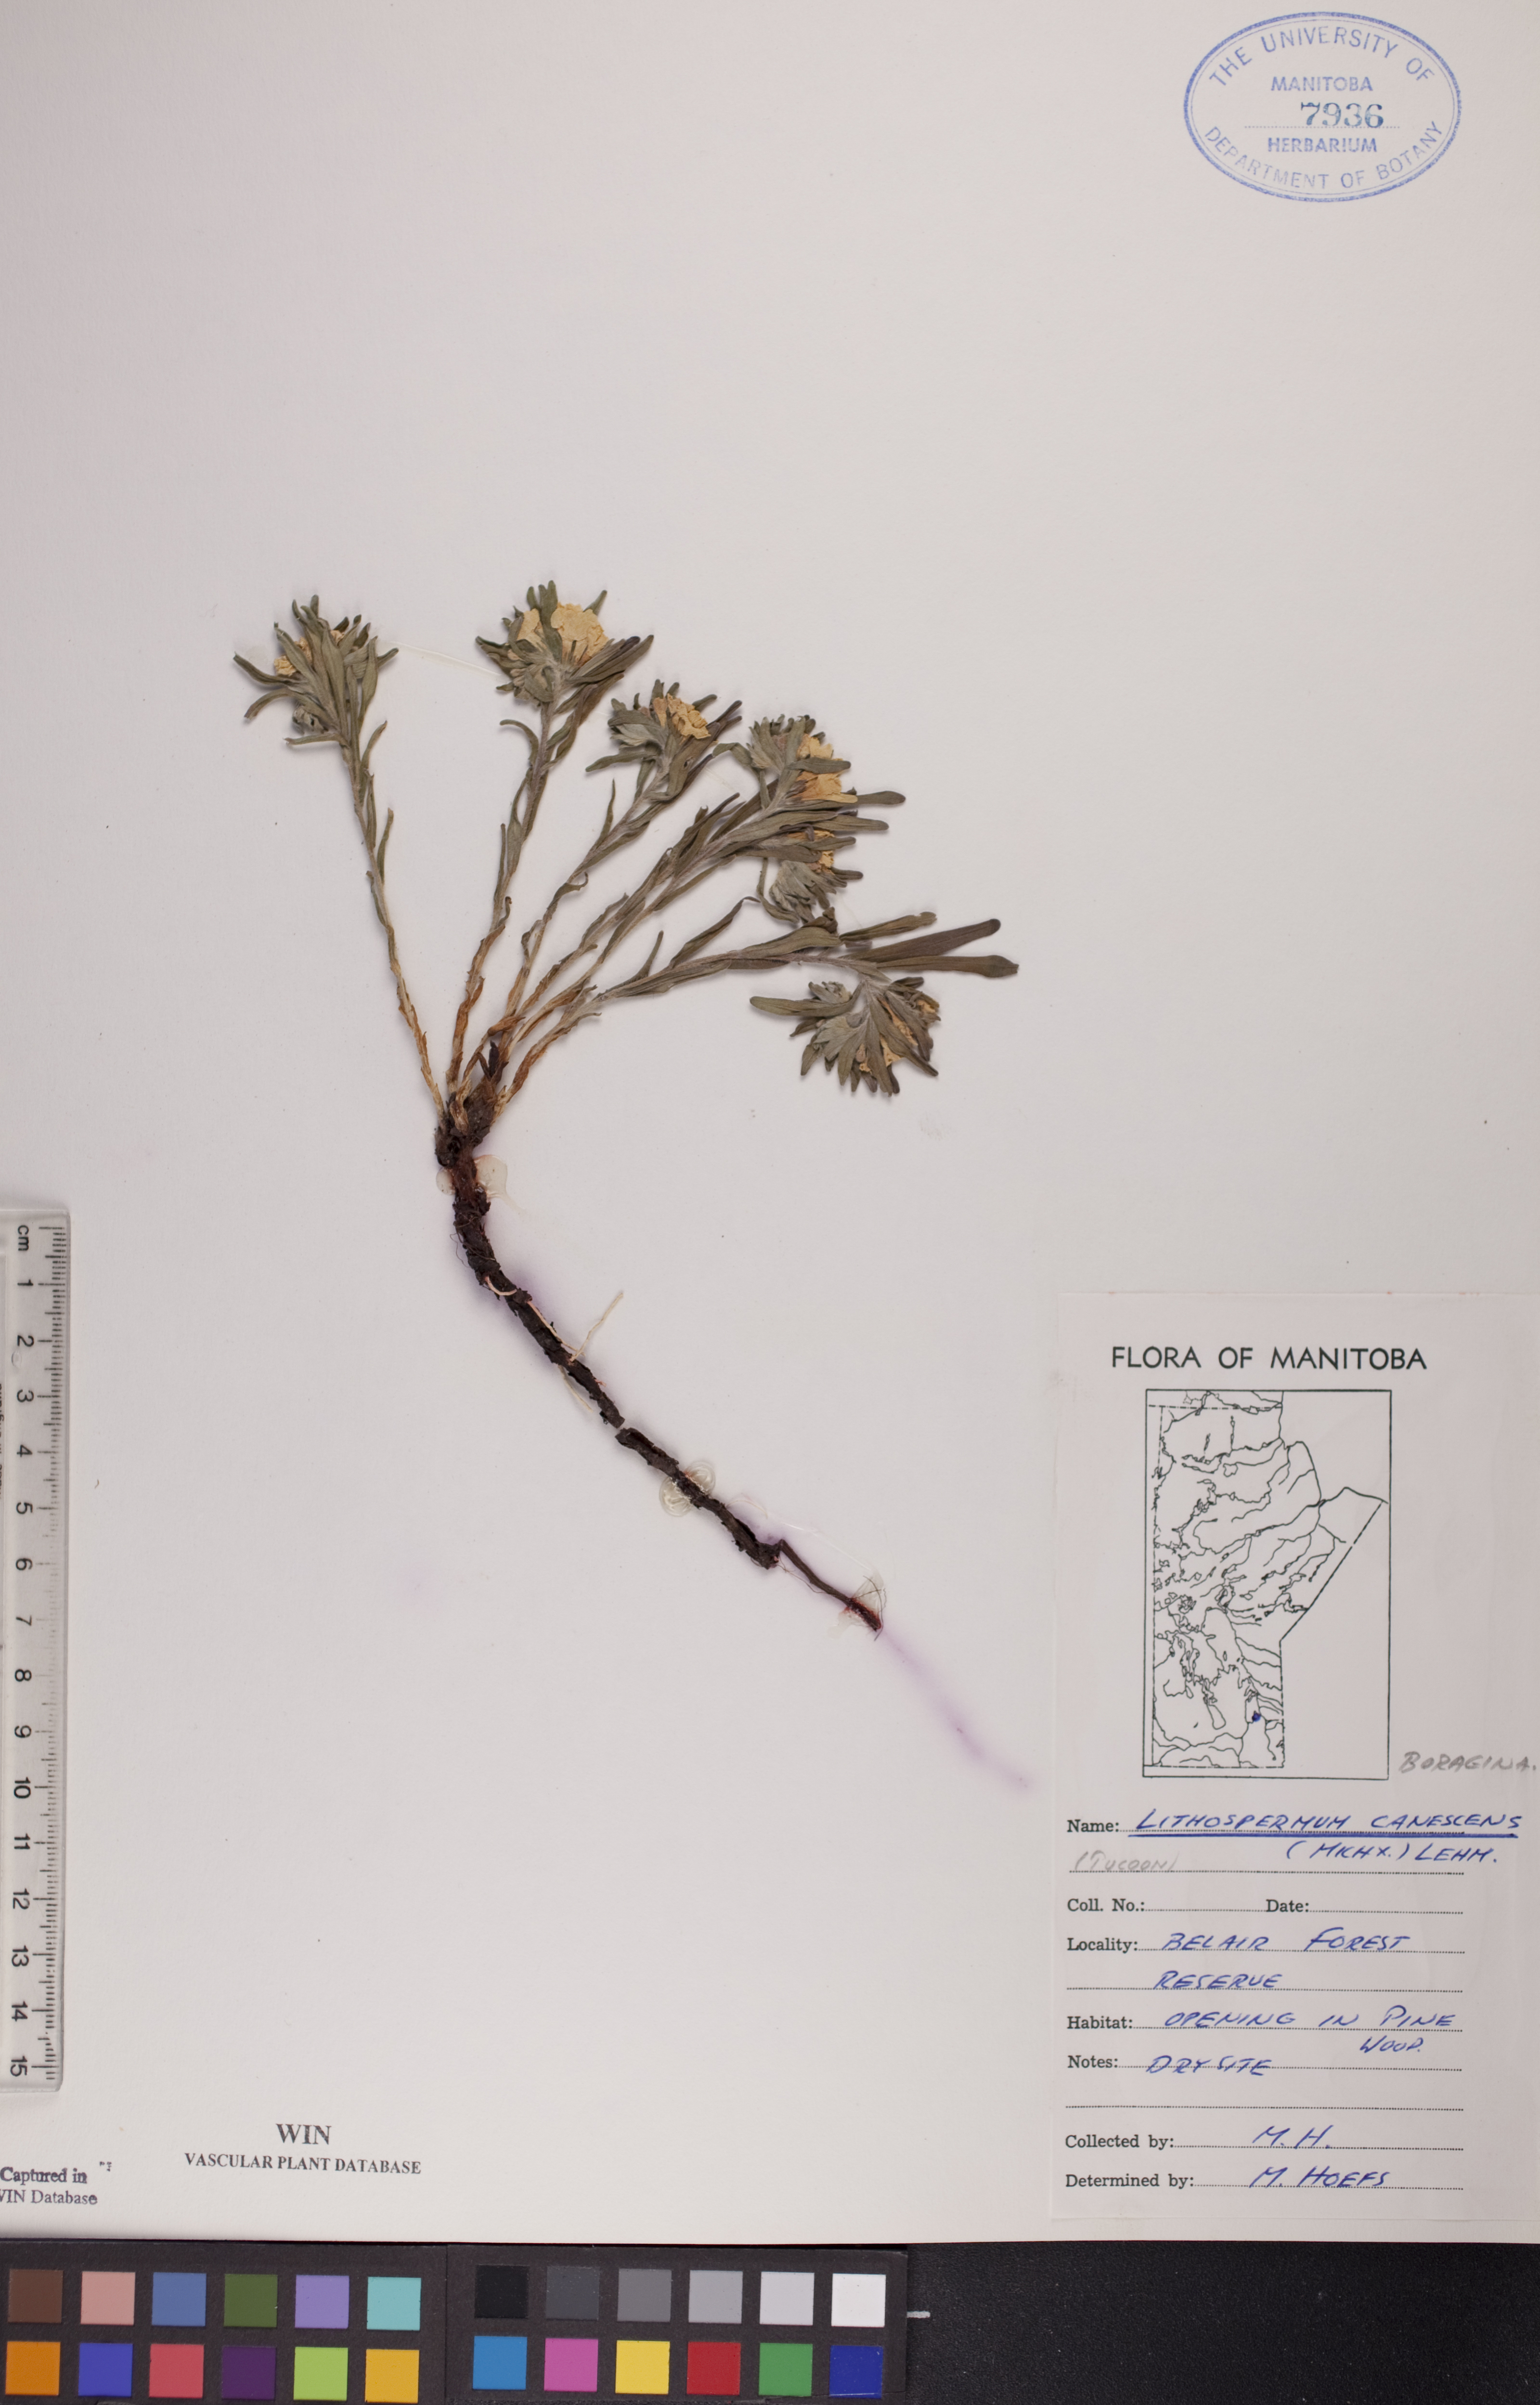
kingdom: Plantae
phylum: Tracheophyta
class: Magnoliopsida
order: Boraginales
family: Boraginaceae
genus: Lithospermum
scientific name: Lithospermum canescens
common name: Hoary puccoon
